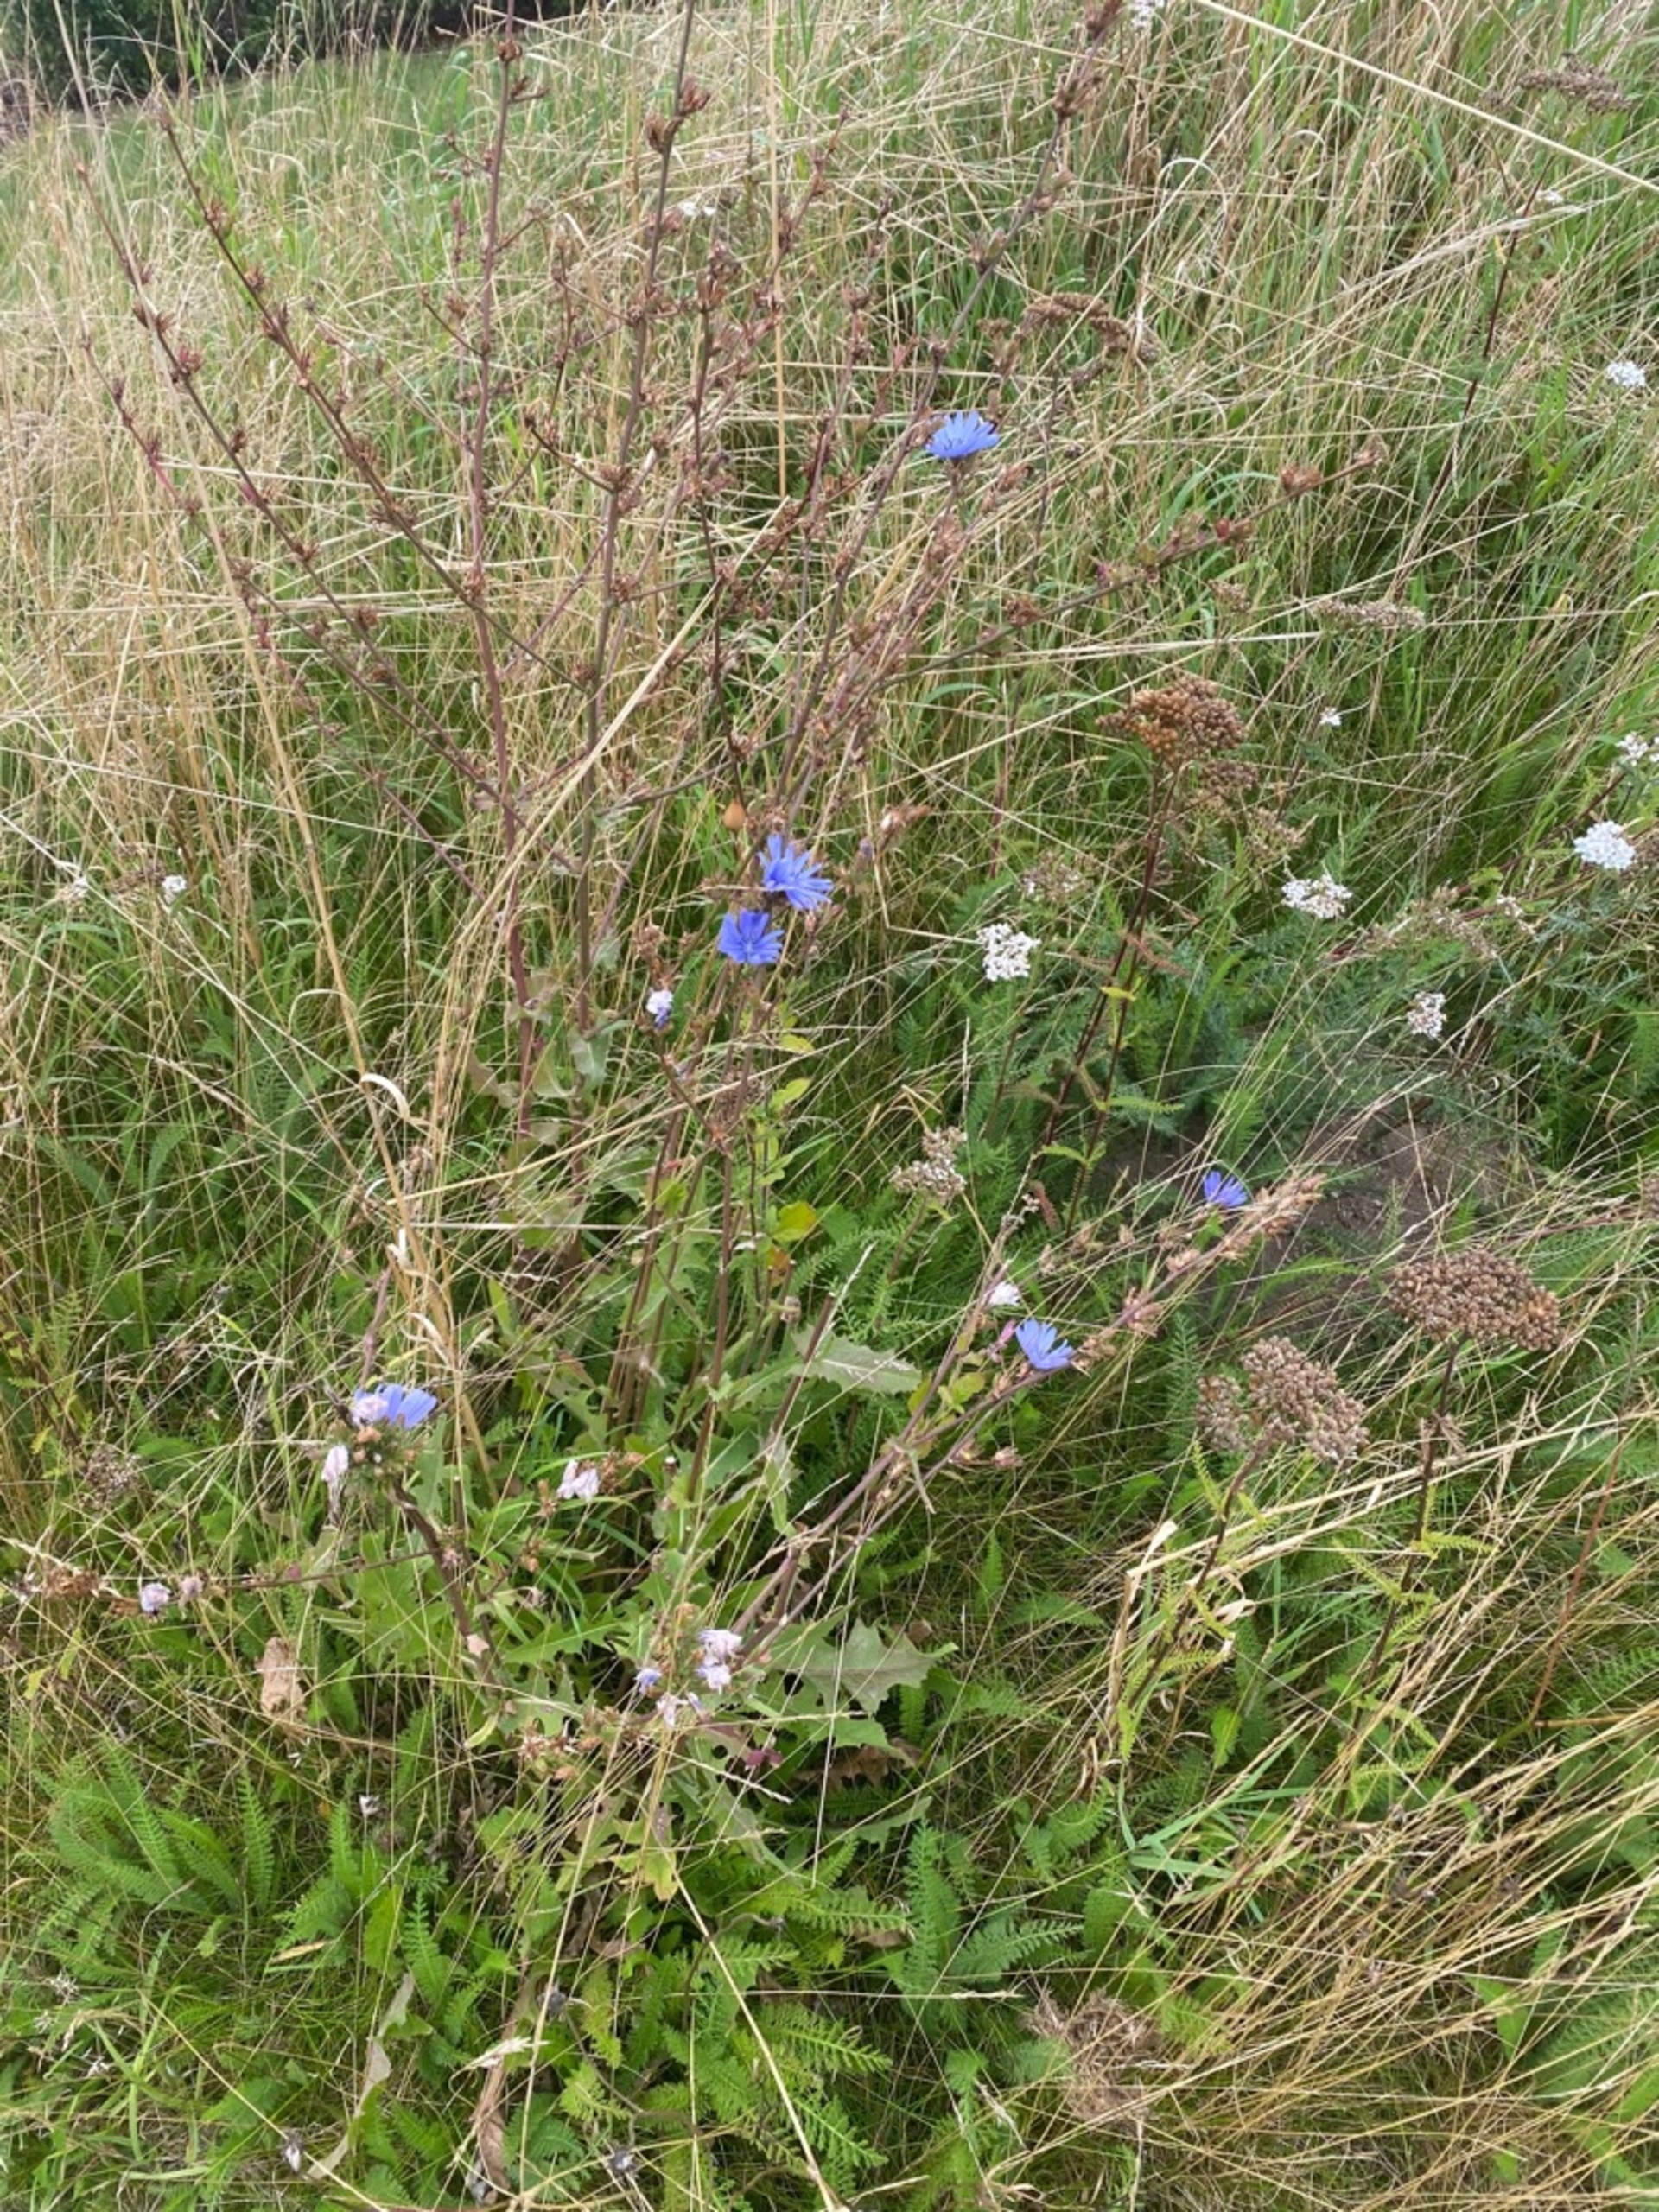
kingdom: Plantae
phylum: Tracheophyta
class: Magnoliopsida
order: Asterales
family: Asteraceae
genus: Cichorium
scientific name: Cichorium intybus
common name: Cikorie
